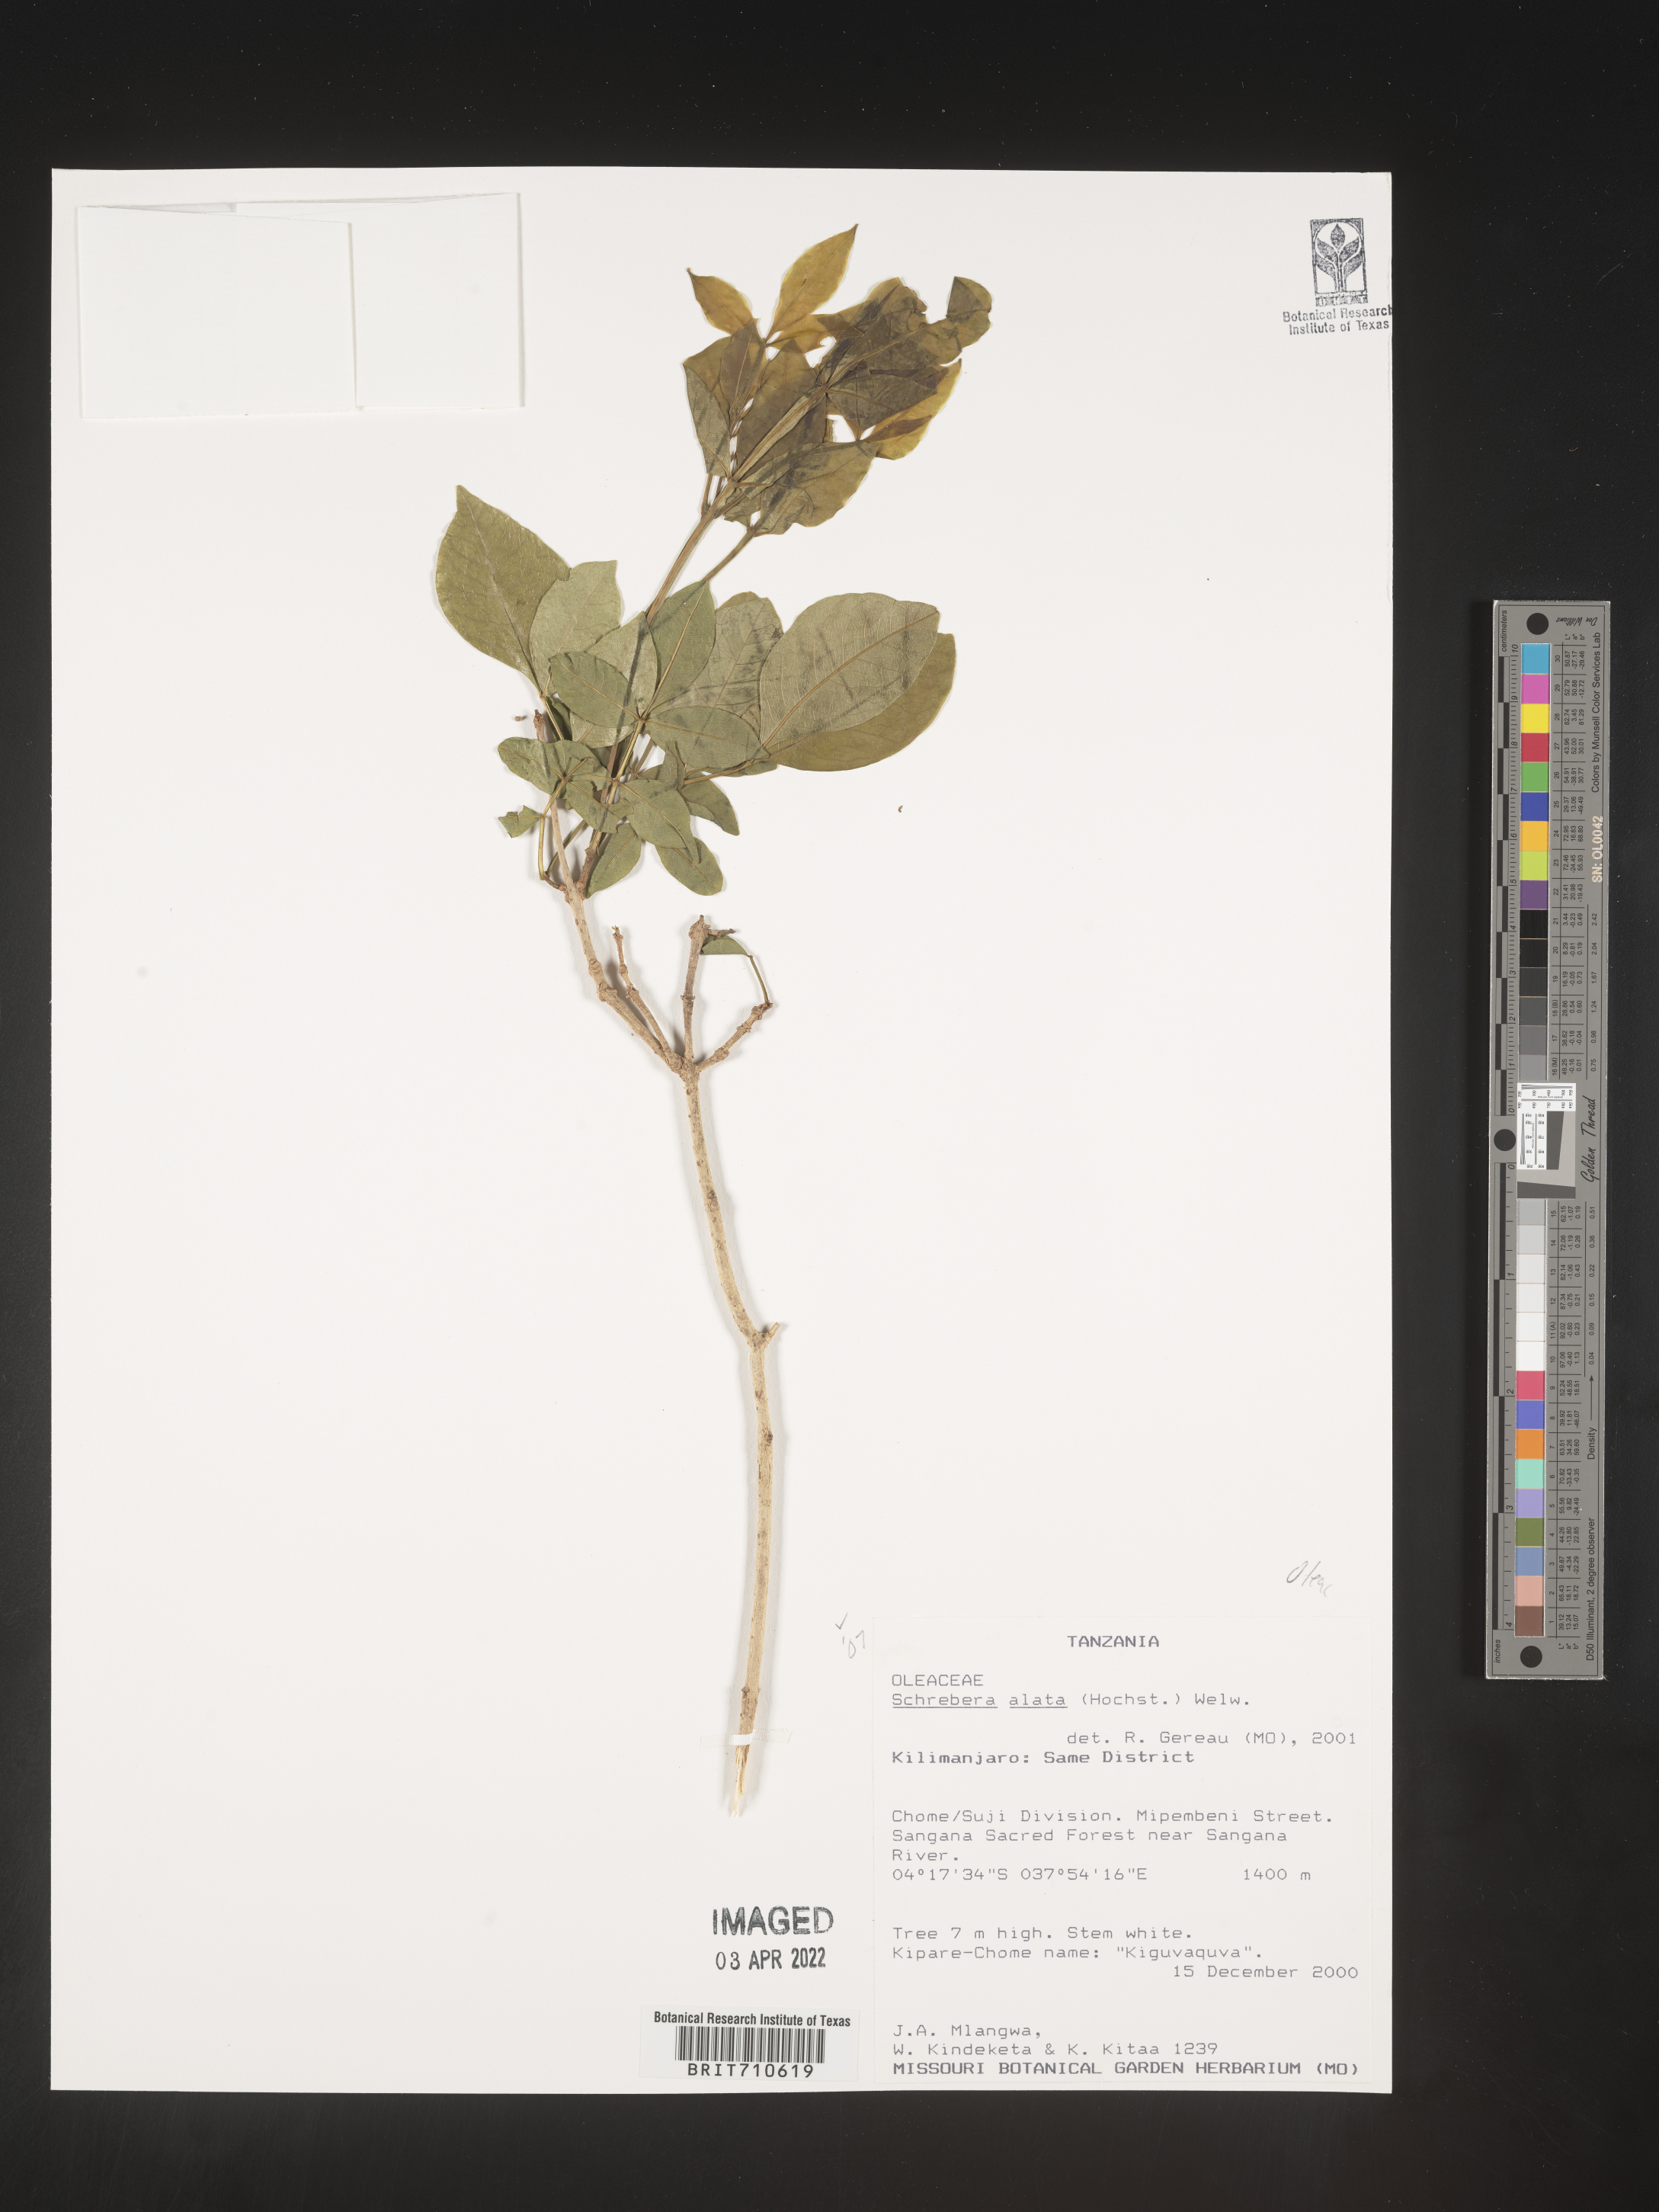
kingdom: Plantae
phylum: Tracheophyta
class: Magnoliopsida
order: Lamiales
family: Oleaceae
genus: Schrebera
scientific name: Schrebera
